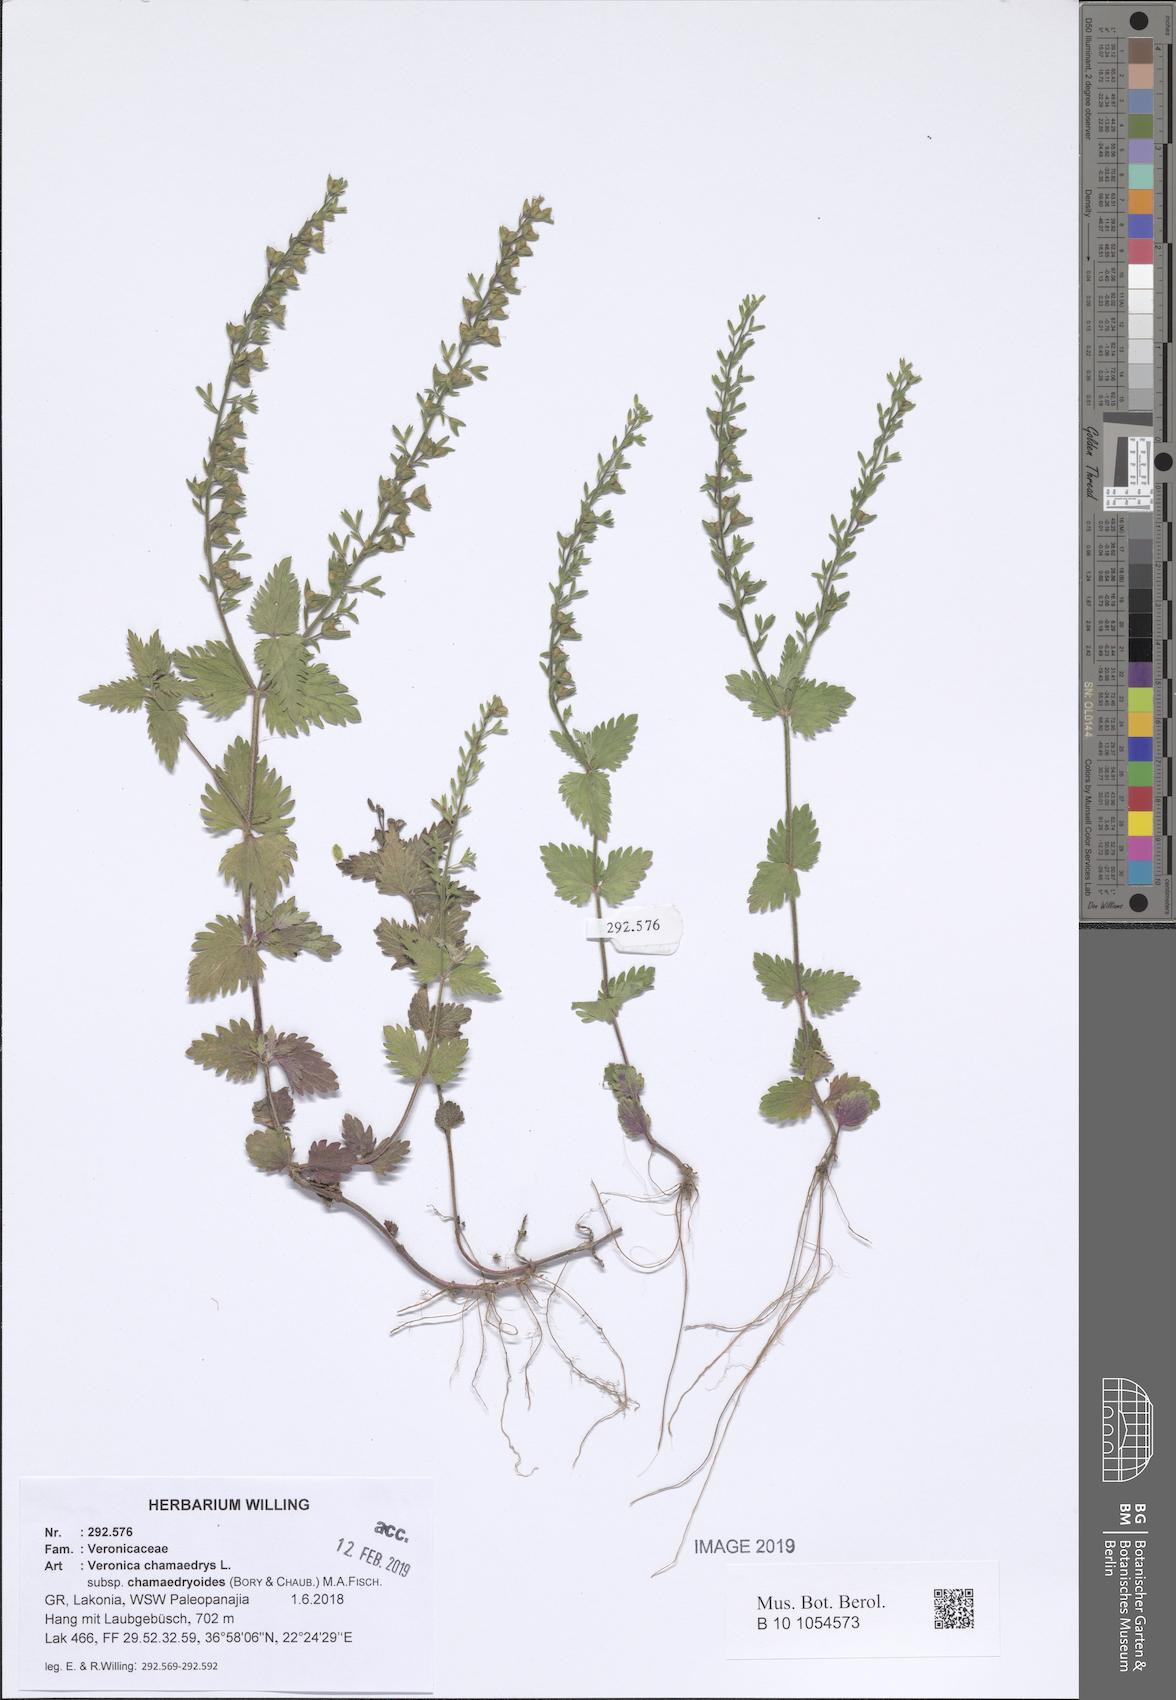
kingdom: Plantae
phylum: Tracheophyta
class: Magnoliopsida
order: Lamiales
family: Plantaginaceae
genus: Veronica
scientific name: Veronica chamaedrys
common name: Germander speedwell
